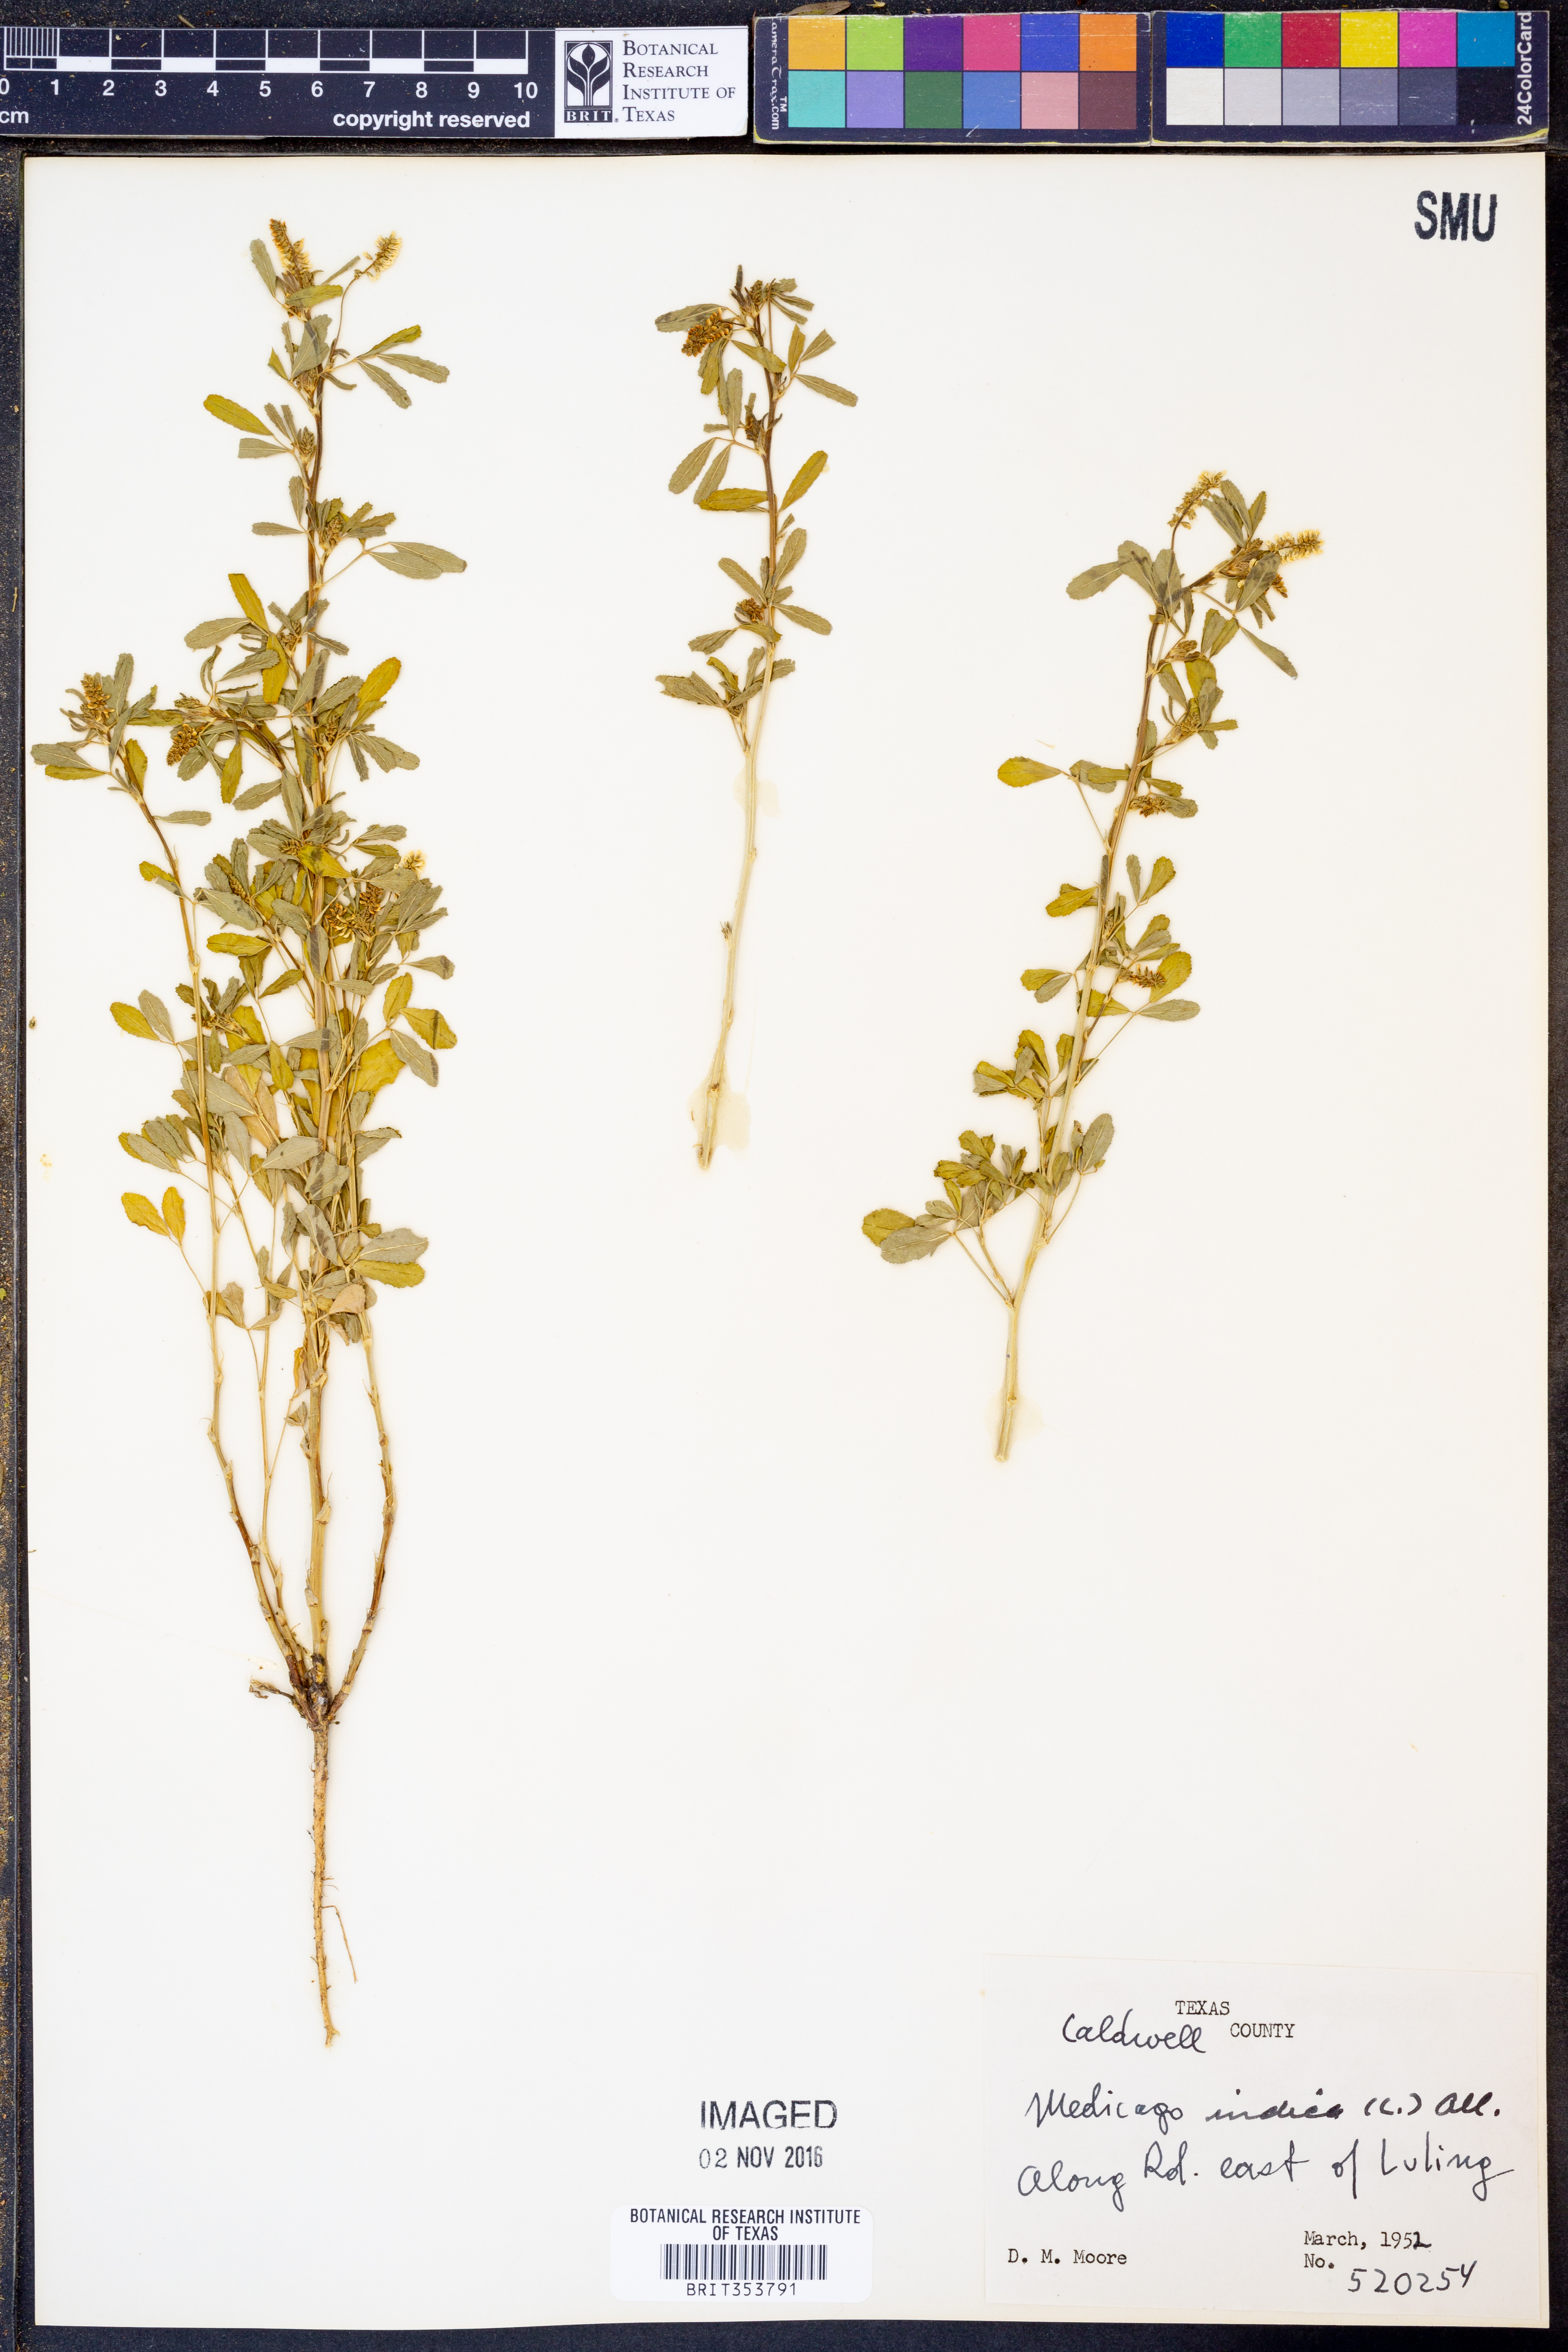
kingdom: Plantae
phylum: Tracheophyta
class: Magnoliopsida
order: Fabales
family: Fabaceae
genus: Medicago
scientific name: Medicago
